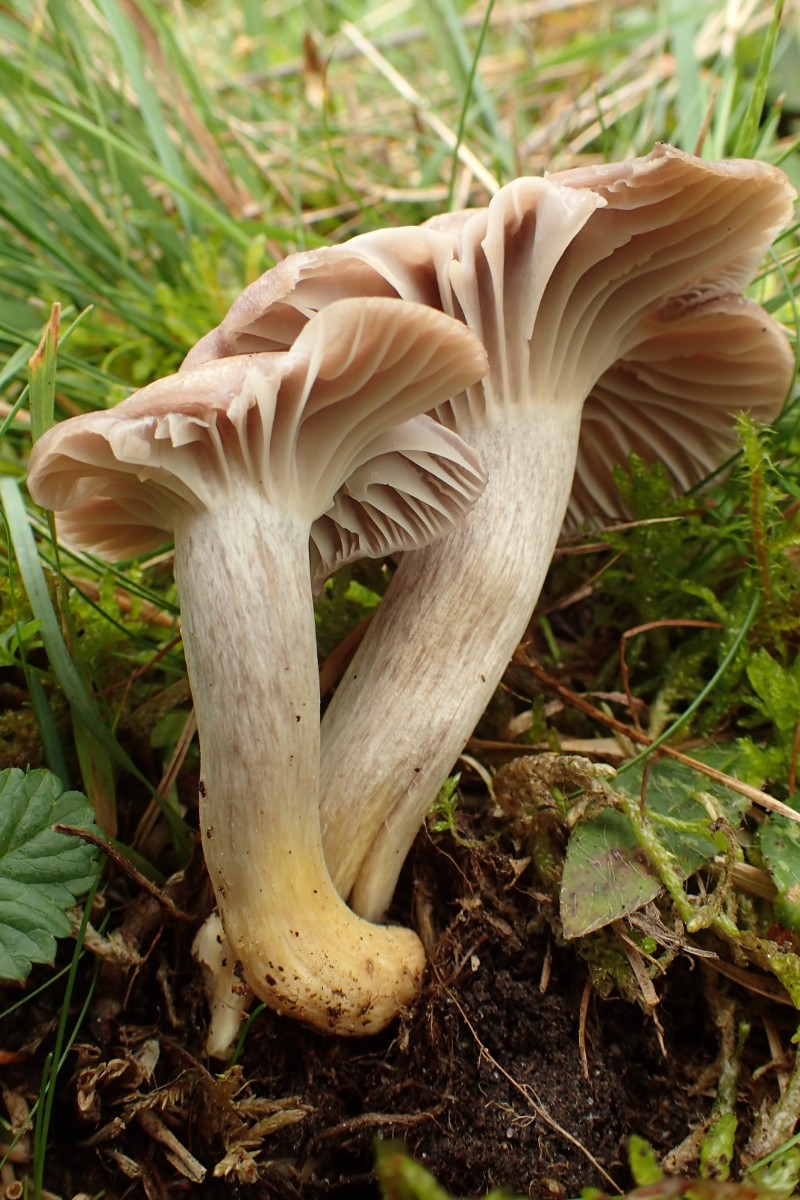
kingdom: Fungi
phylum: Basidiomycota
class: Agaricomycetes
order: Agaricales
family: Hygrophoraceae
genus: Cuphophyllus
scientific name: Cuphophyllus flavipes
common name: gulfodet vokshat
